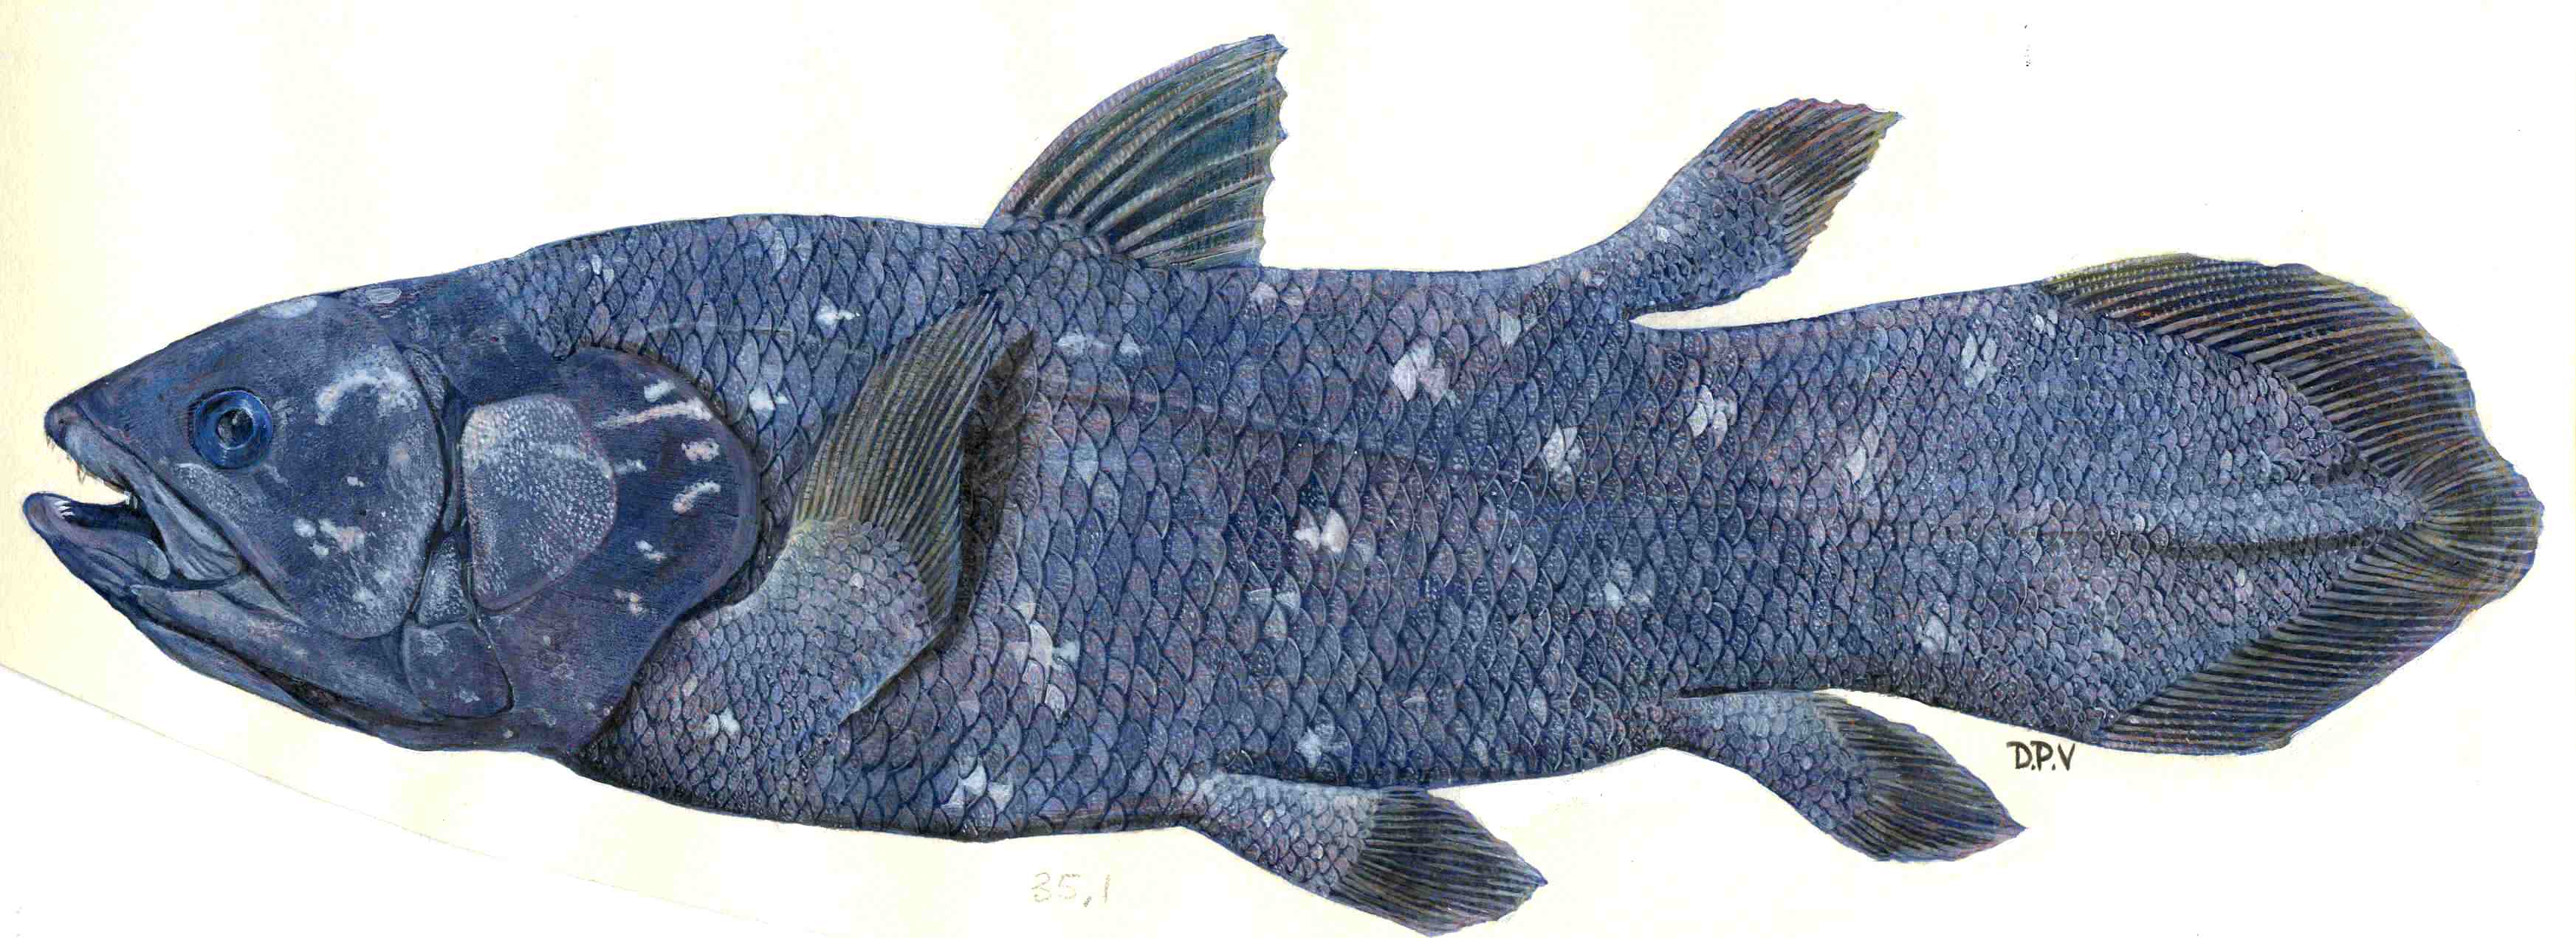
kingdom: Animalia
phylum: Chordata
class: Coelacanthi
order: Coelacanthiformes
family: Latimeriidae
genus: Latimeria
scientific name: Latimeria chalumnae
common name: Coelacanth
